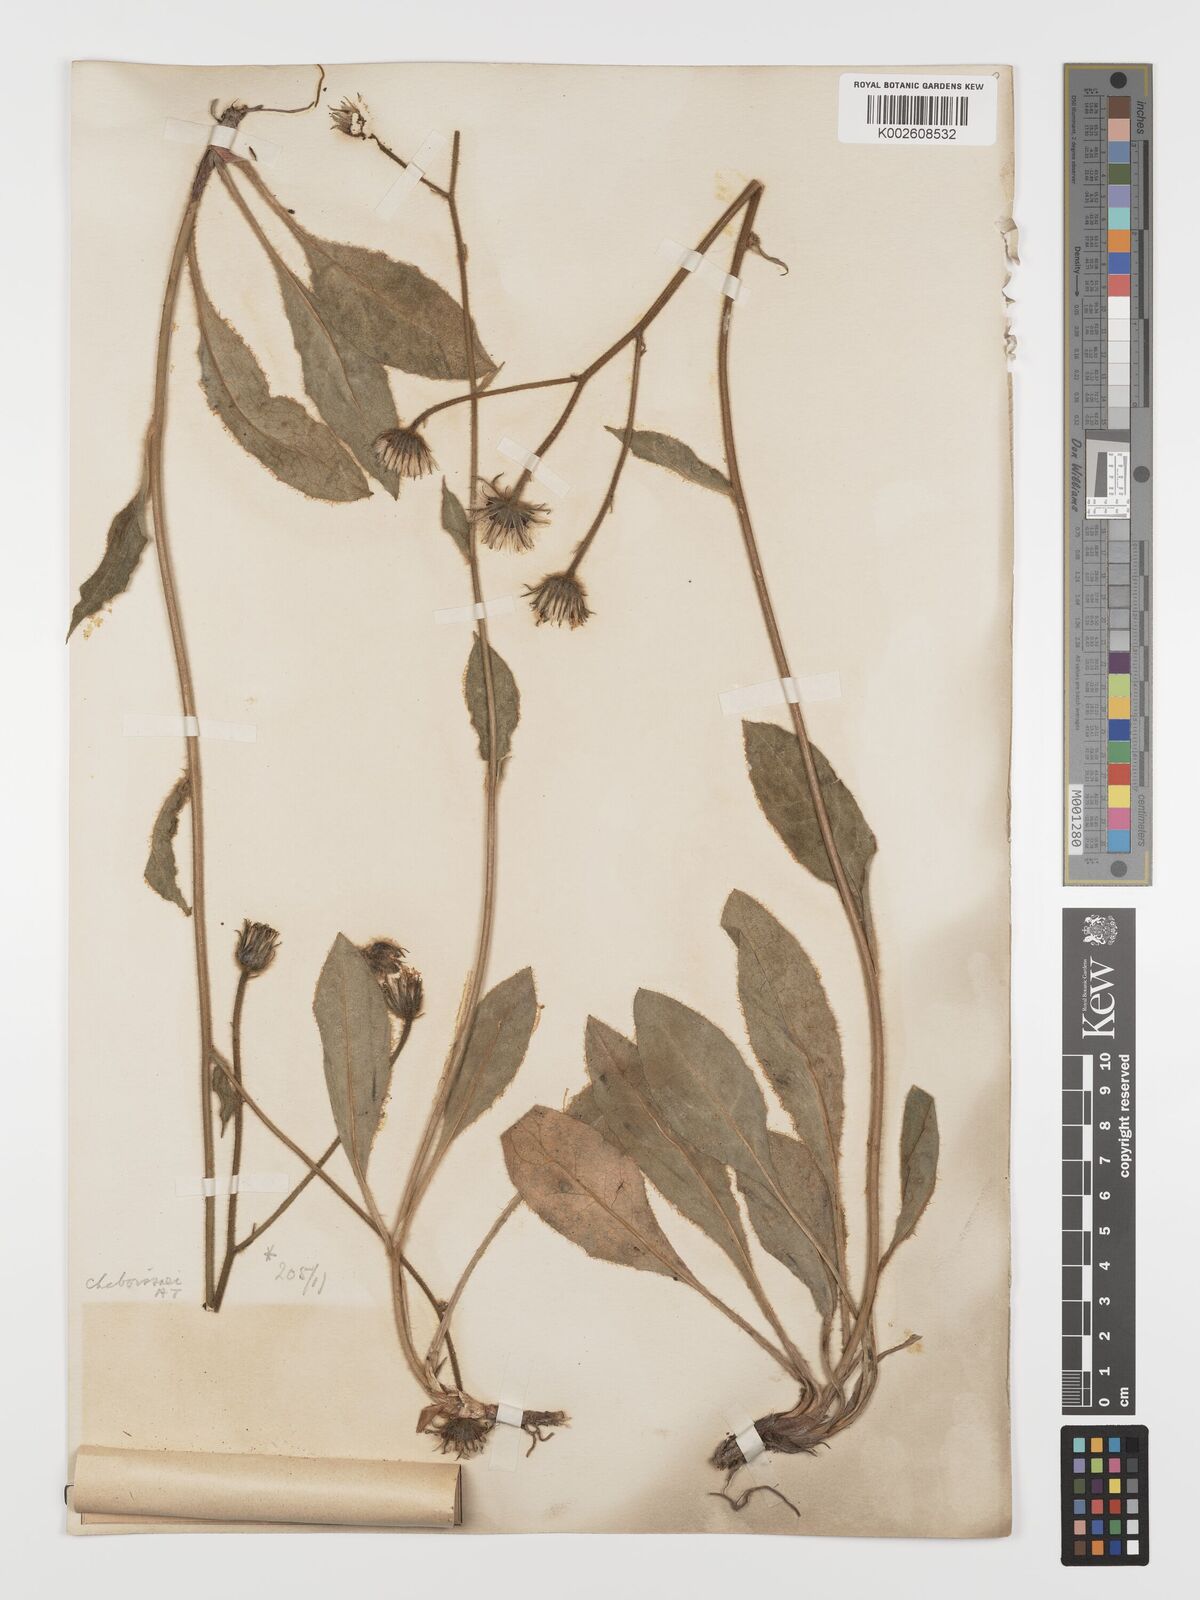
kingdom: Plantae
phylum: Tracheophyta
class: Magnoliopsida
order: Asterales
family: Asteraceae
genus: Hieracium
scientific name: Hieracium chaboissaei
